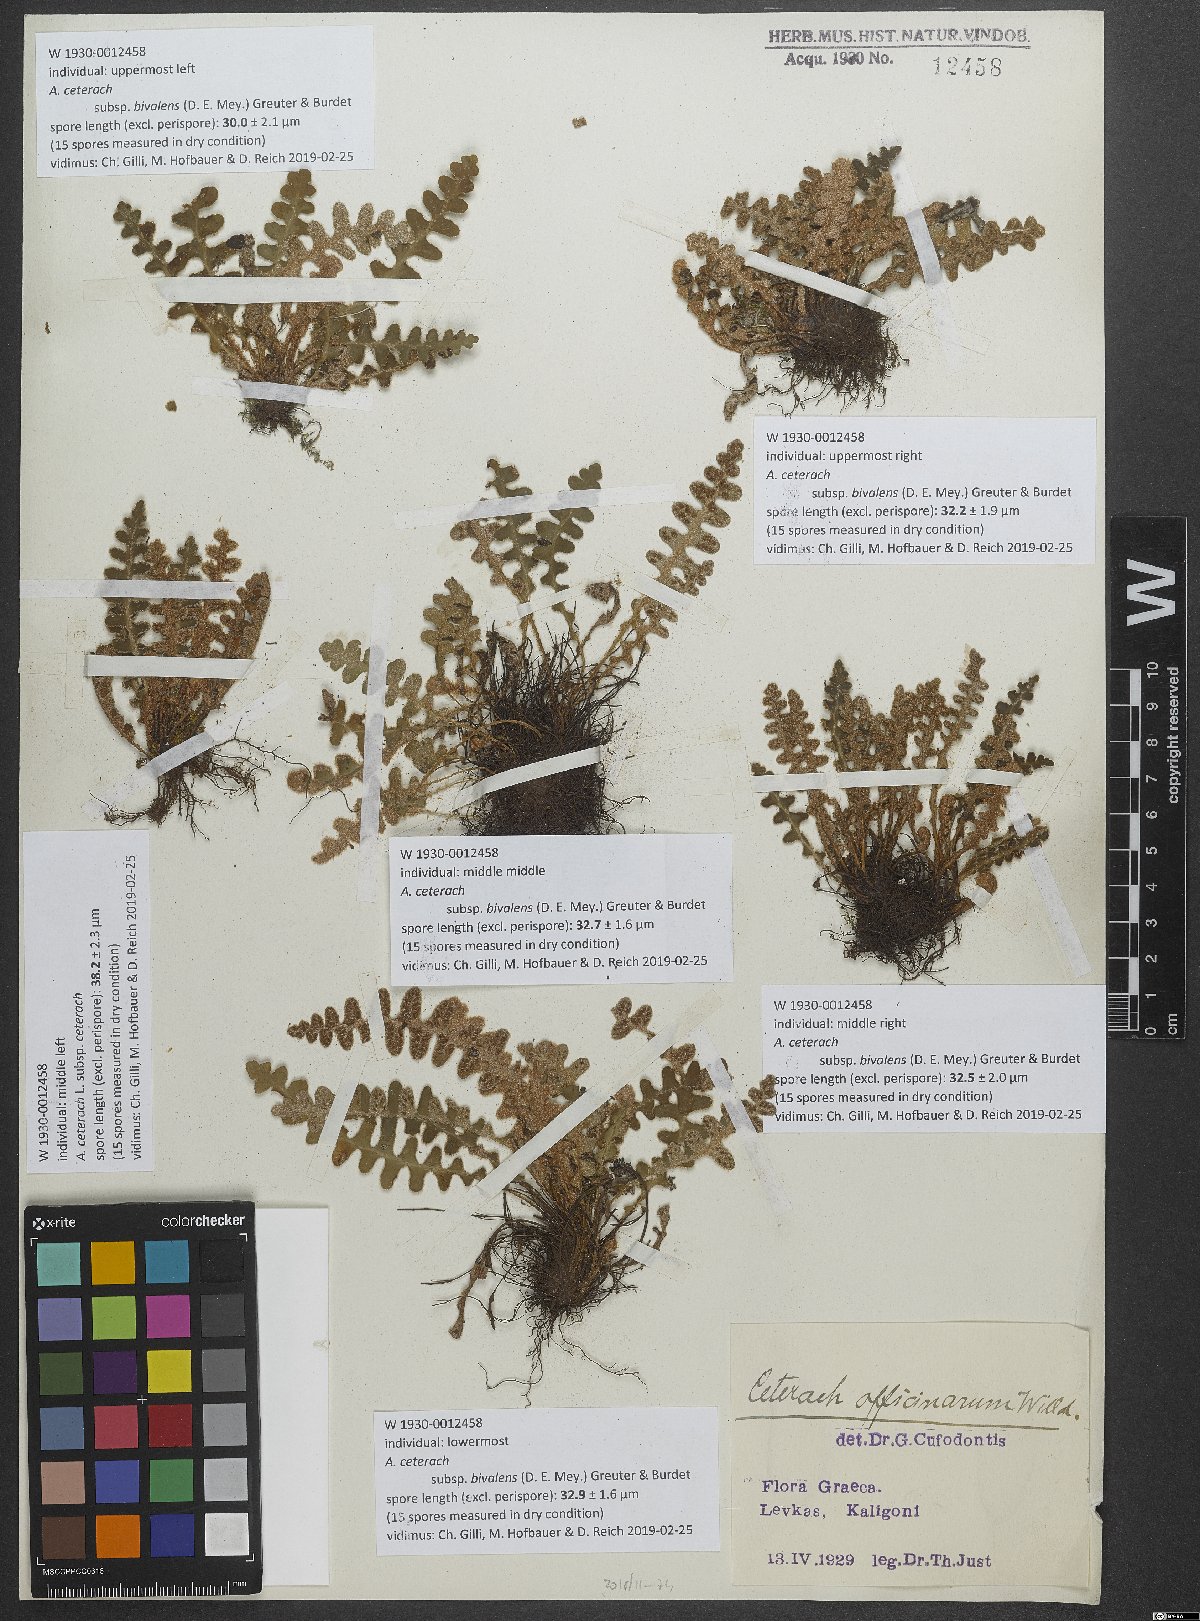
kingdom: Plantae
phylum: Tracheophyta
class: Polypodiopsida
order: Polypodiales
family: Aspleniaceae
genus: Asplenium
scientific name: Asplenium ceterach
